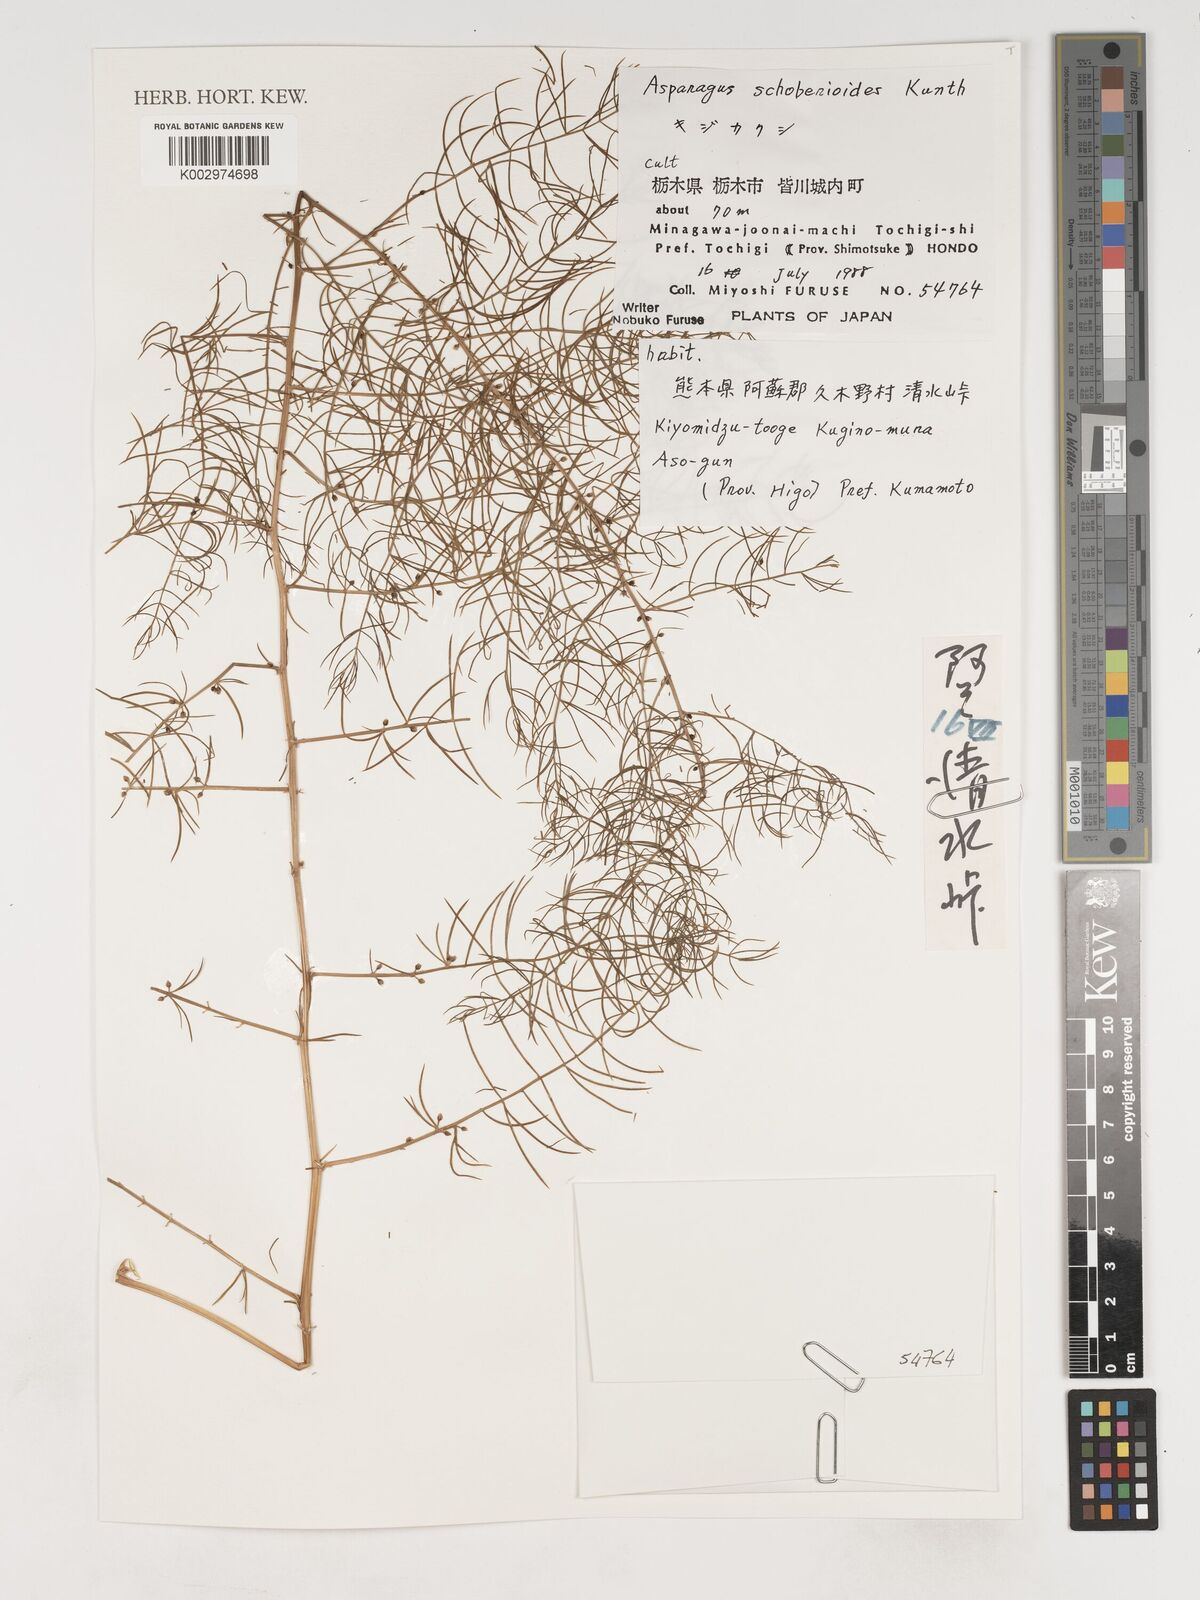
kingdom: Plantae
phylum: Tracheophyta
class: Liliopsida
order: Asparagales
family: Asparagaceae
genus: Asparagus
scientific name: Asparagus schoberioides
